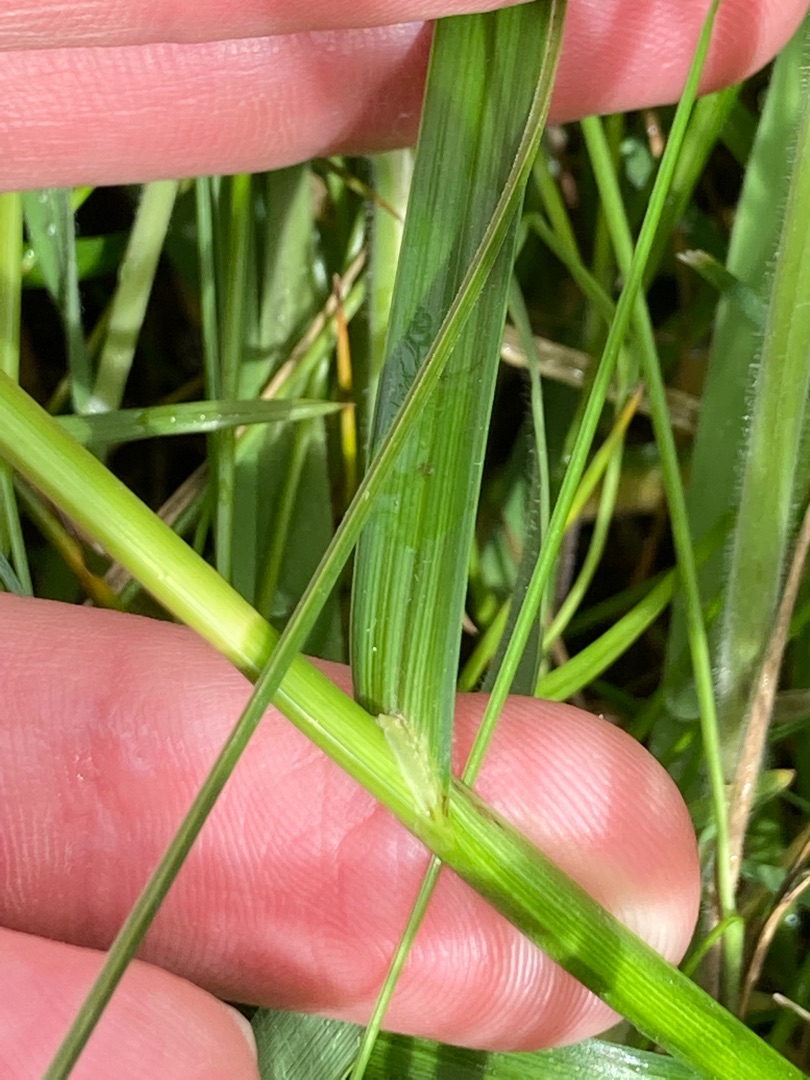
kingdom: Plantae
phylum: Tracheophyta
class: Liliopsida
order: Poales
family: Cyperaceae
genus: Carex
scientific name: Carex disticha
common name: Toradet star
